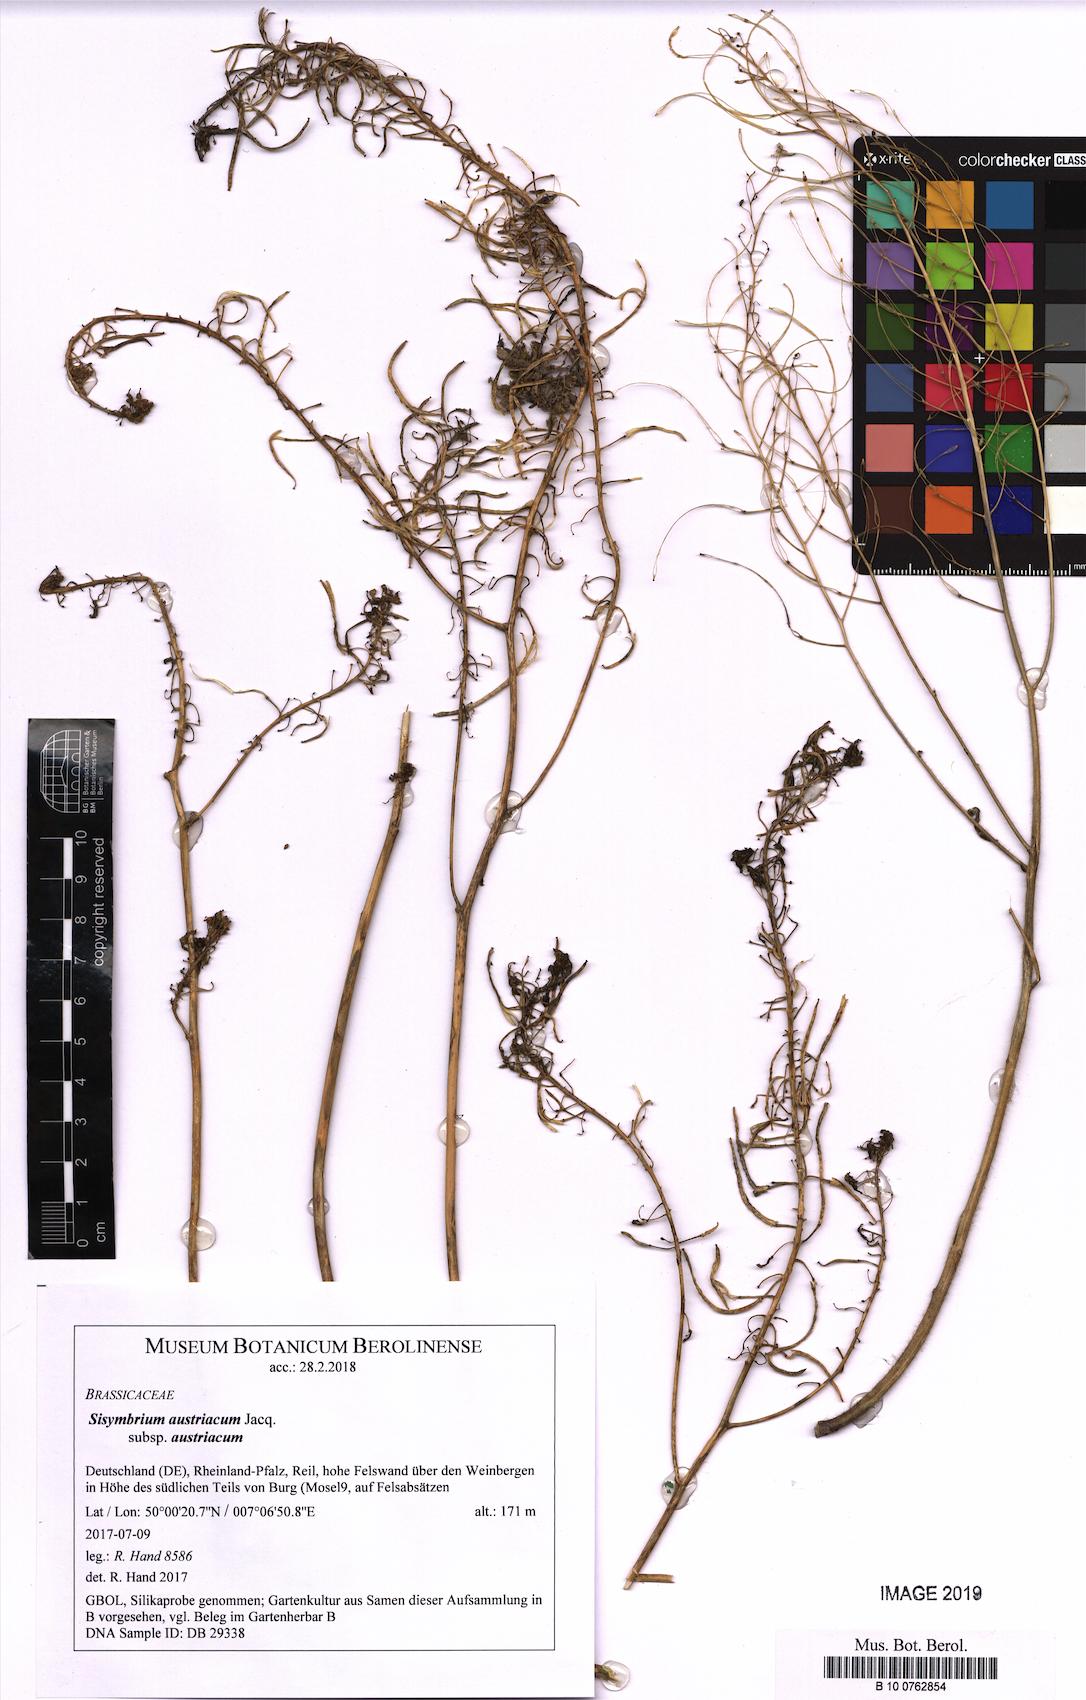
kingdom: Plantae
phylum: Tracheophyta
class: Magnoliopsida
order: Brassicales
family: Brassicaceae
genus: Sisymbrium
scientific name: Sisymbrium austriacum
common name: Jeweled rocket
